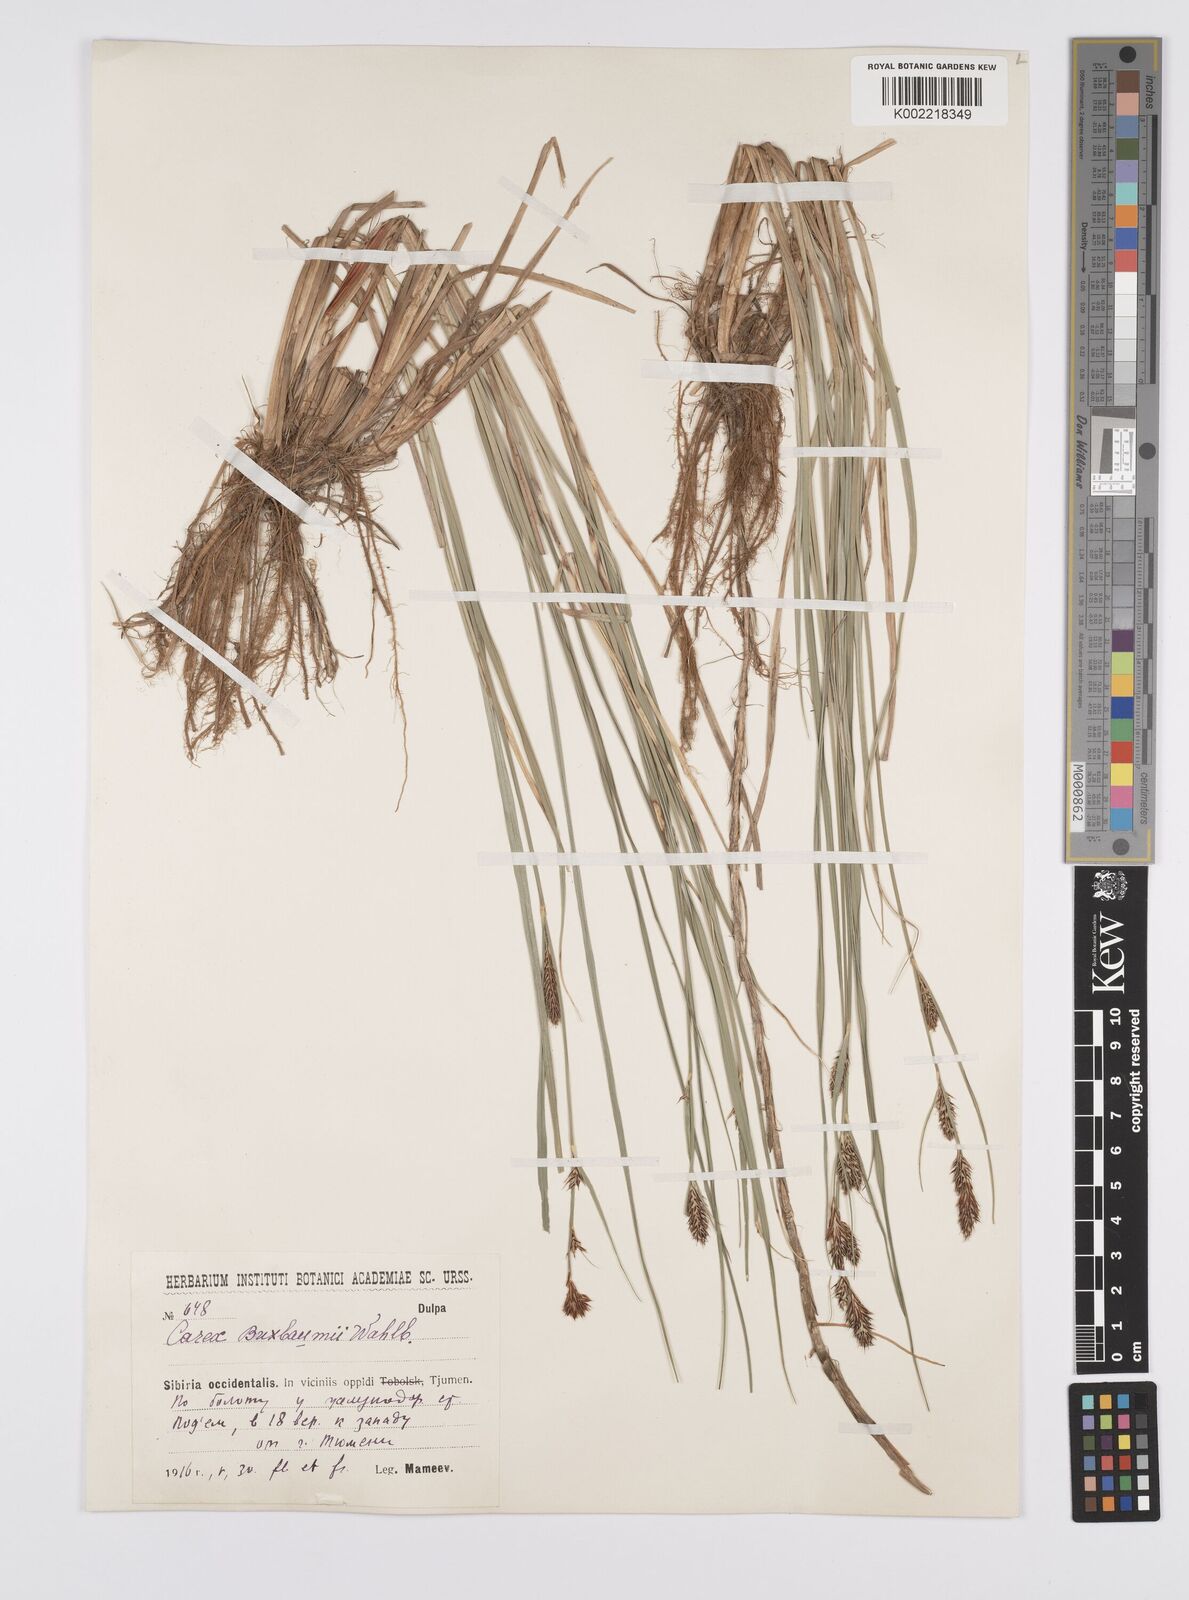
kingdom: Plantae
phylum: Tracheophyta
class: Liliopsida
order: Poales
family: Cyperaceae
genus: Carex
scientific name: Carex buxbaumii
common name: Club sedge
